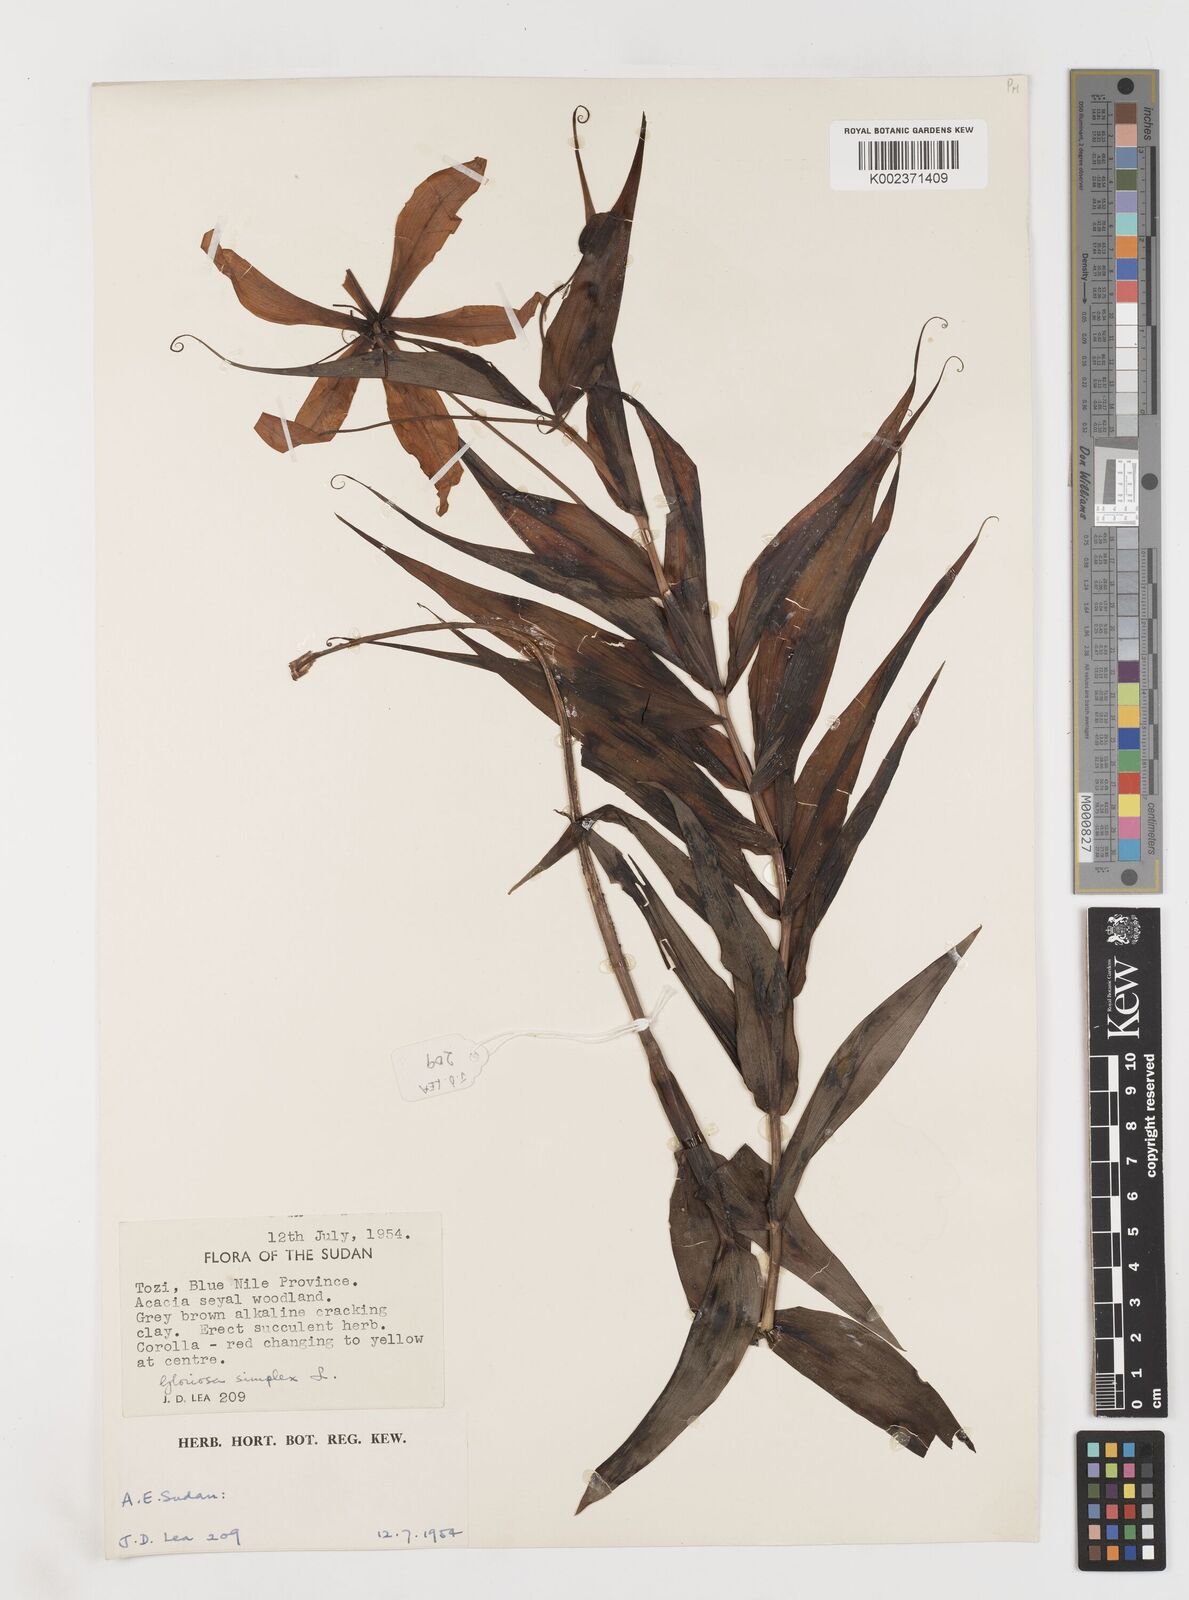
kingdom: Plantae
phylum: Tracheophyta
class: Liliopsida
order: Liliales
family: Colchicaceae
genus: Gloriosa
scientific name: Gloriosa simplex
